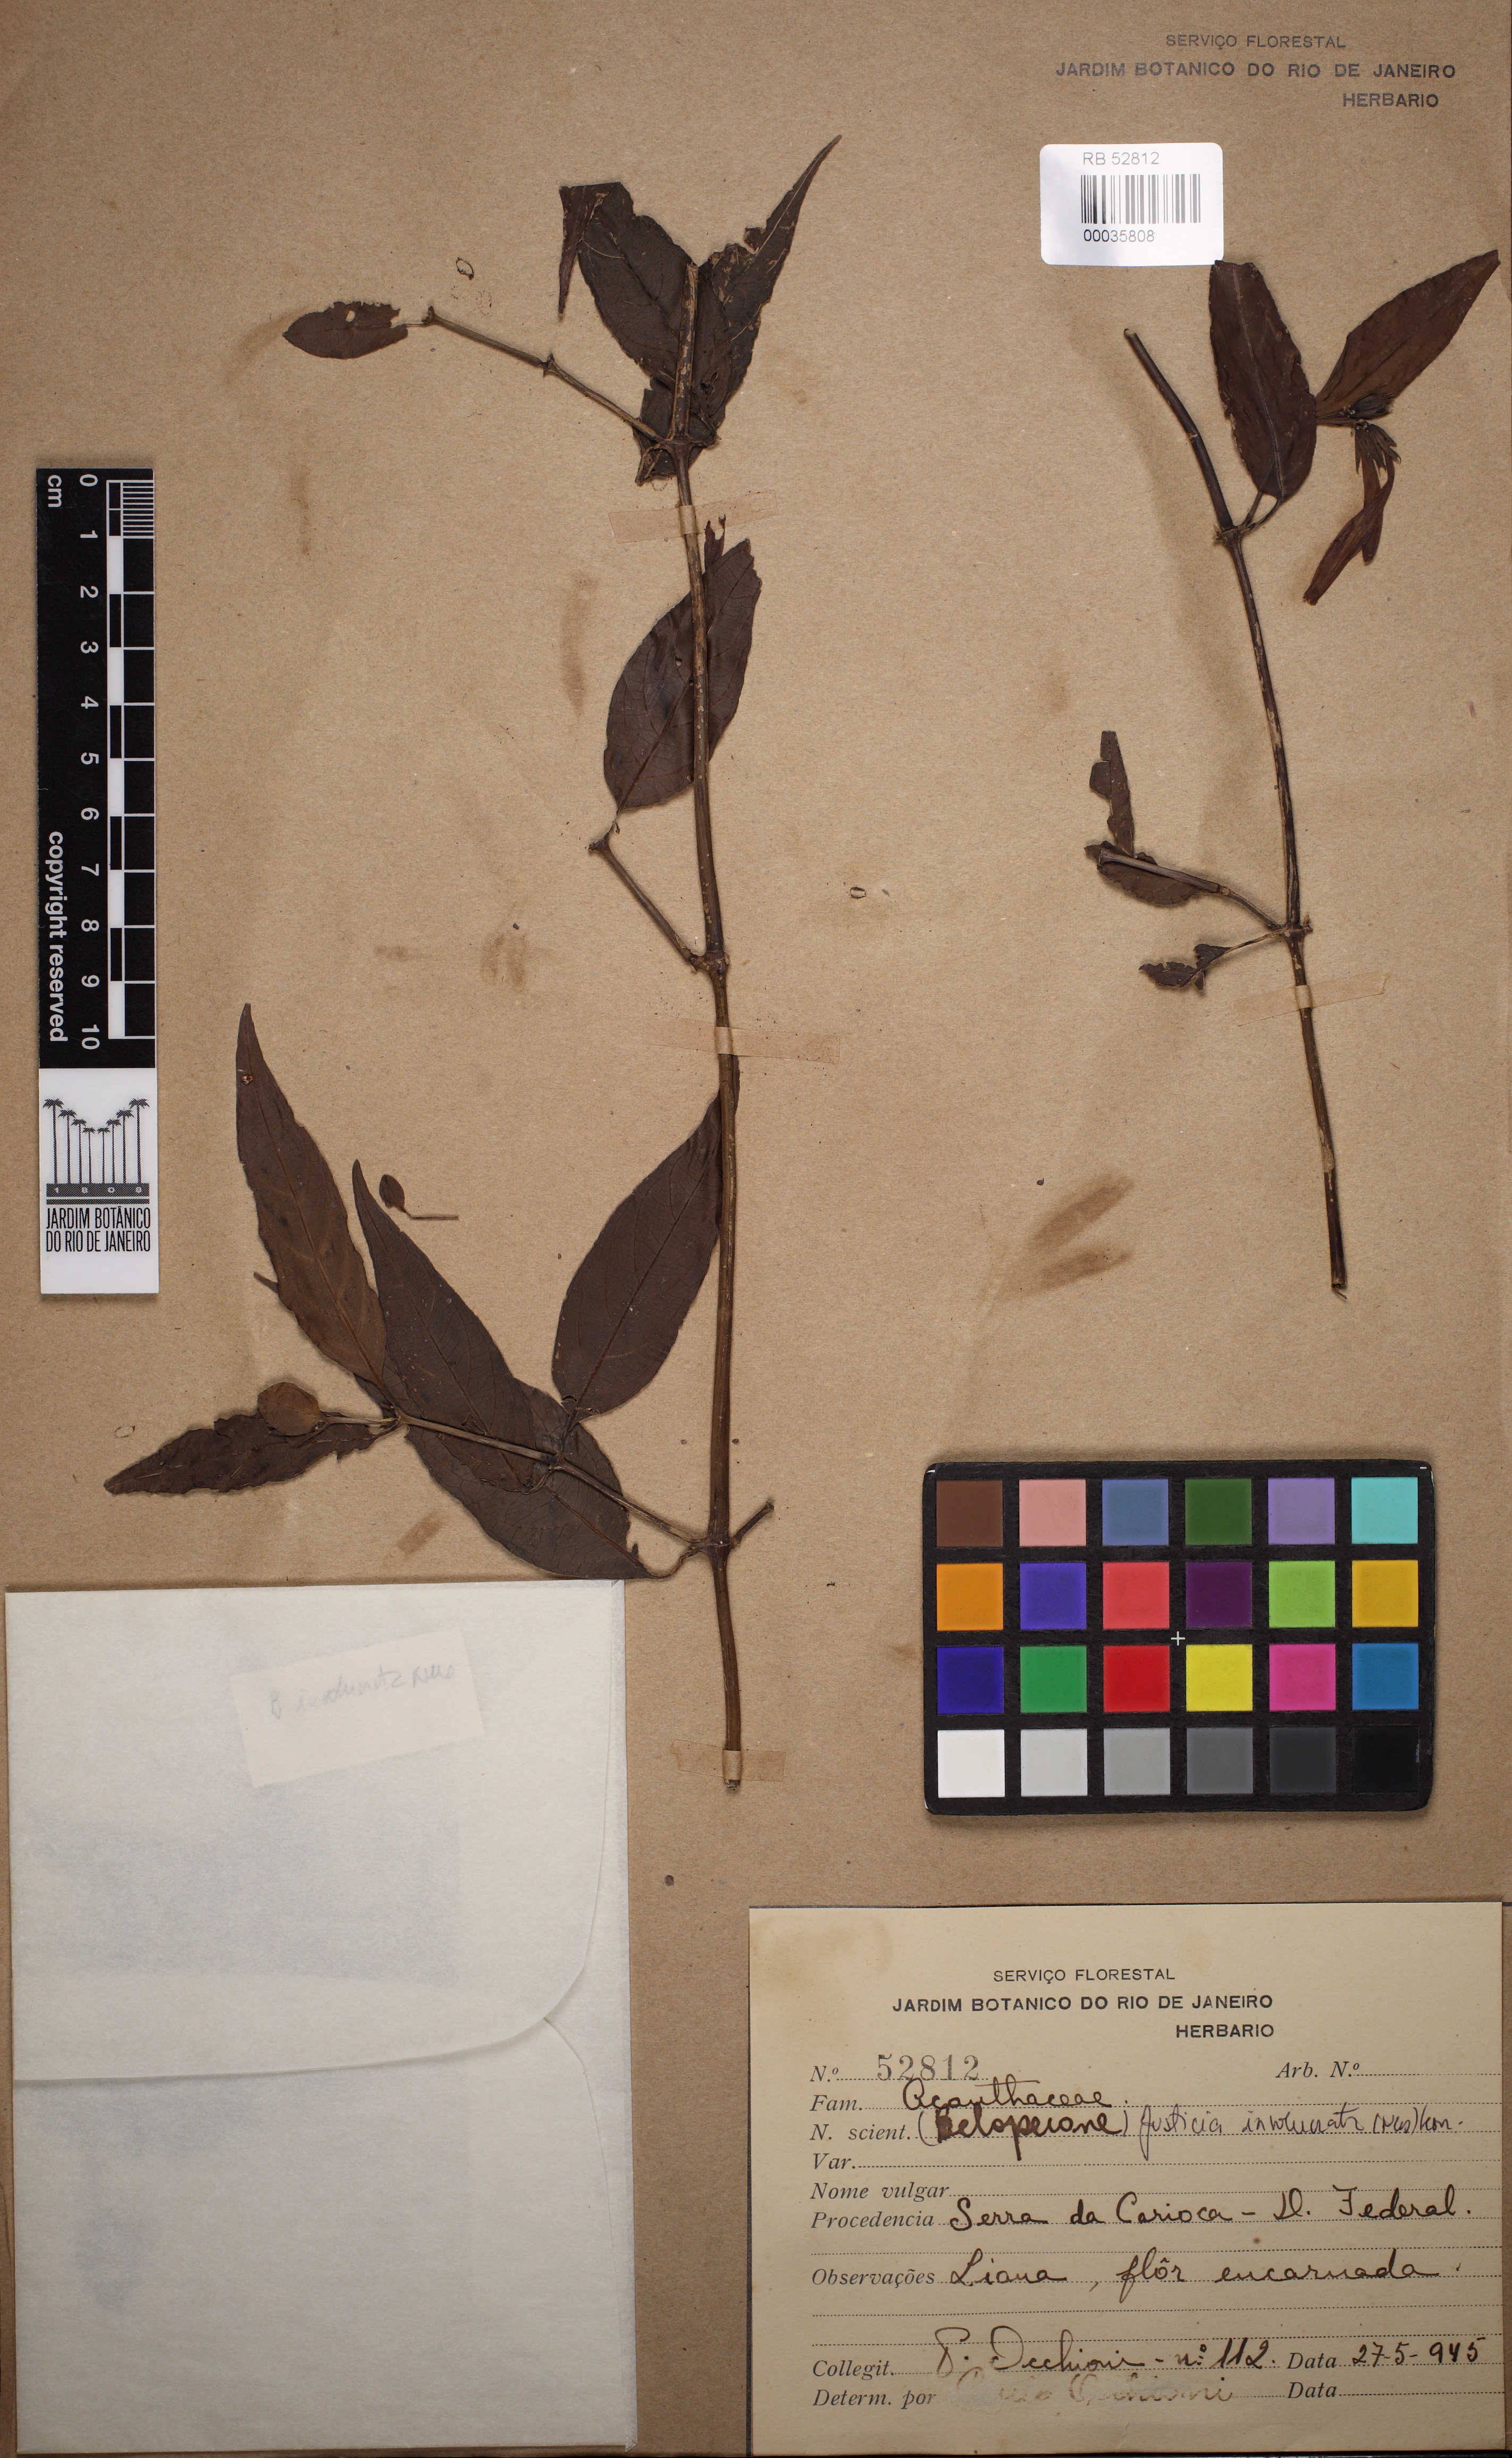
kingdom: Plantae
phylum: Tracheophyta
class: Magnoliopsida
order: Lamiales
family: Acanthaceae
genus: Justicia
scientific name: Justicia involucrata
